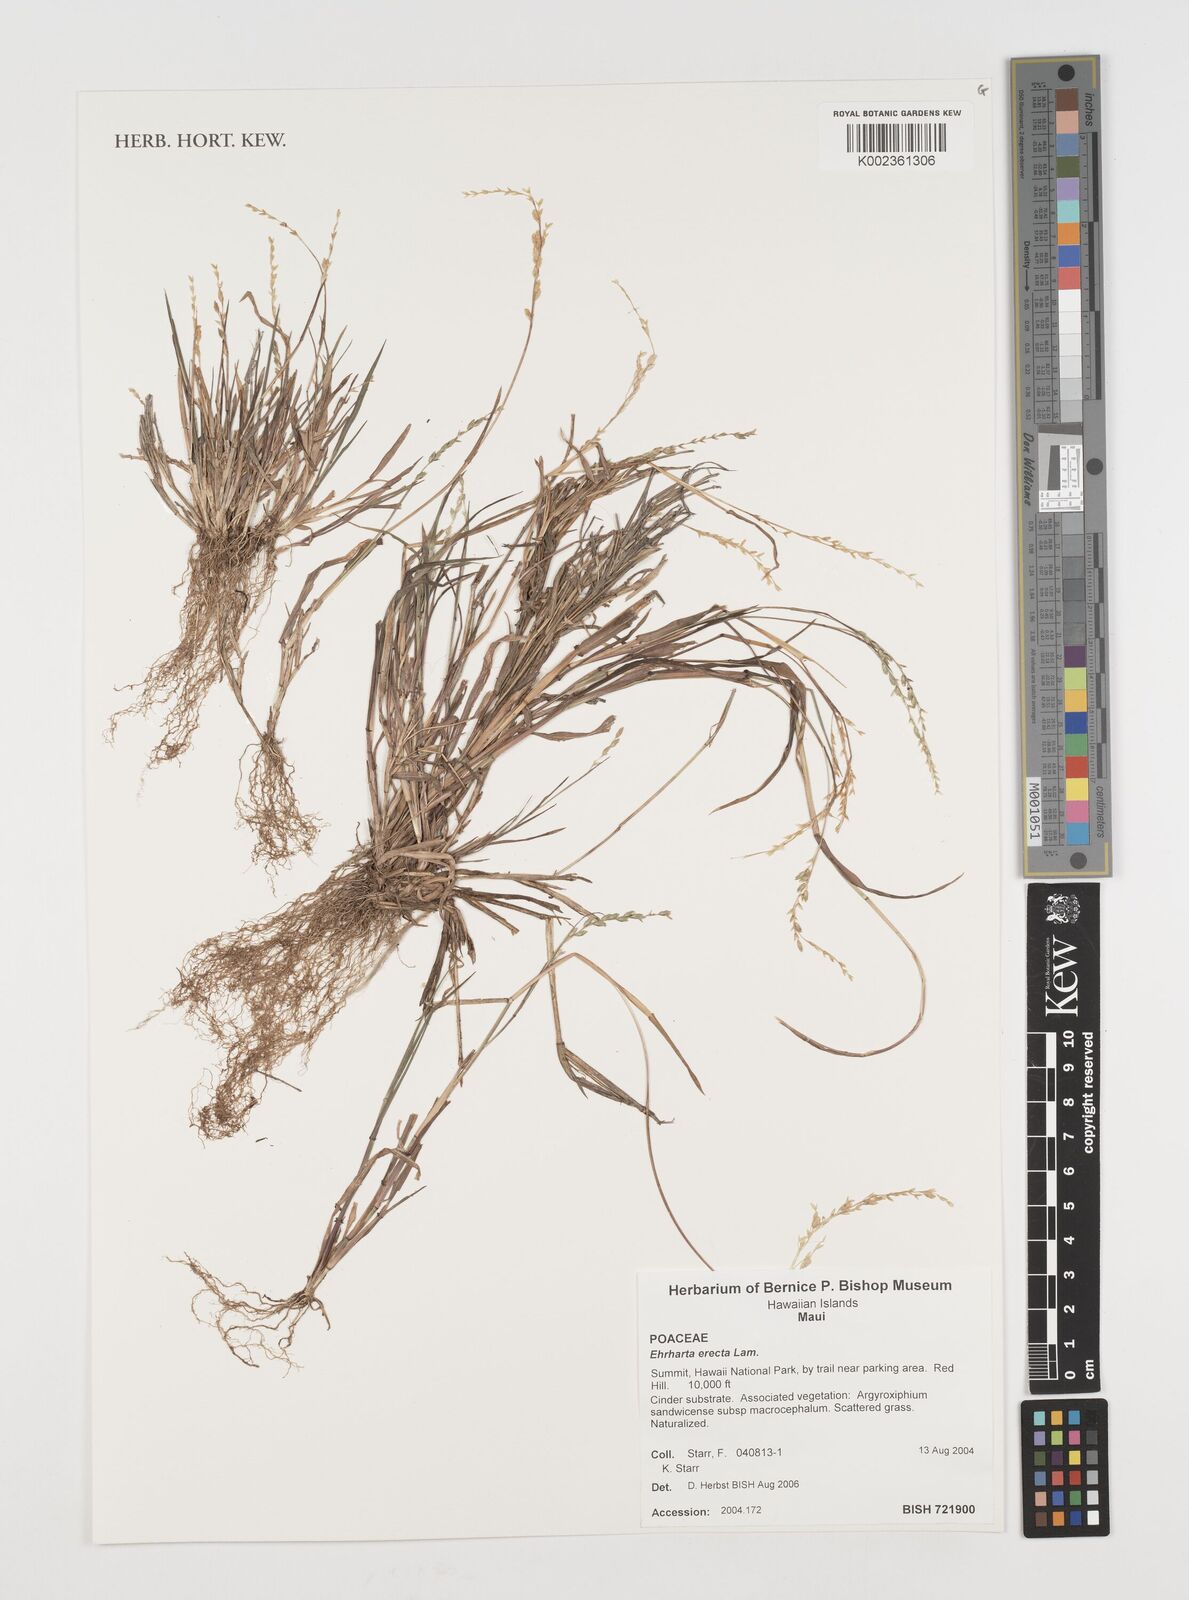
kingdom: Plantae
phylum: Tracheophyta
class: Liliopsida
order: Poales
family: Poaceae
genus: Ehrharta
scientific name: Ehrharta erecta
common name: Panic veldtgrass
